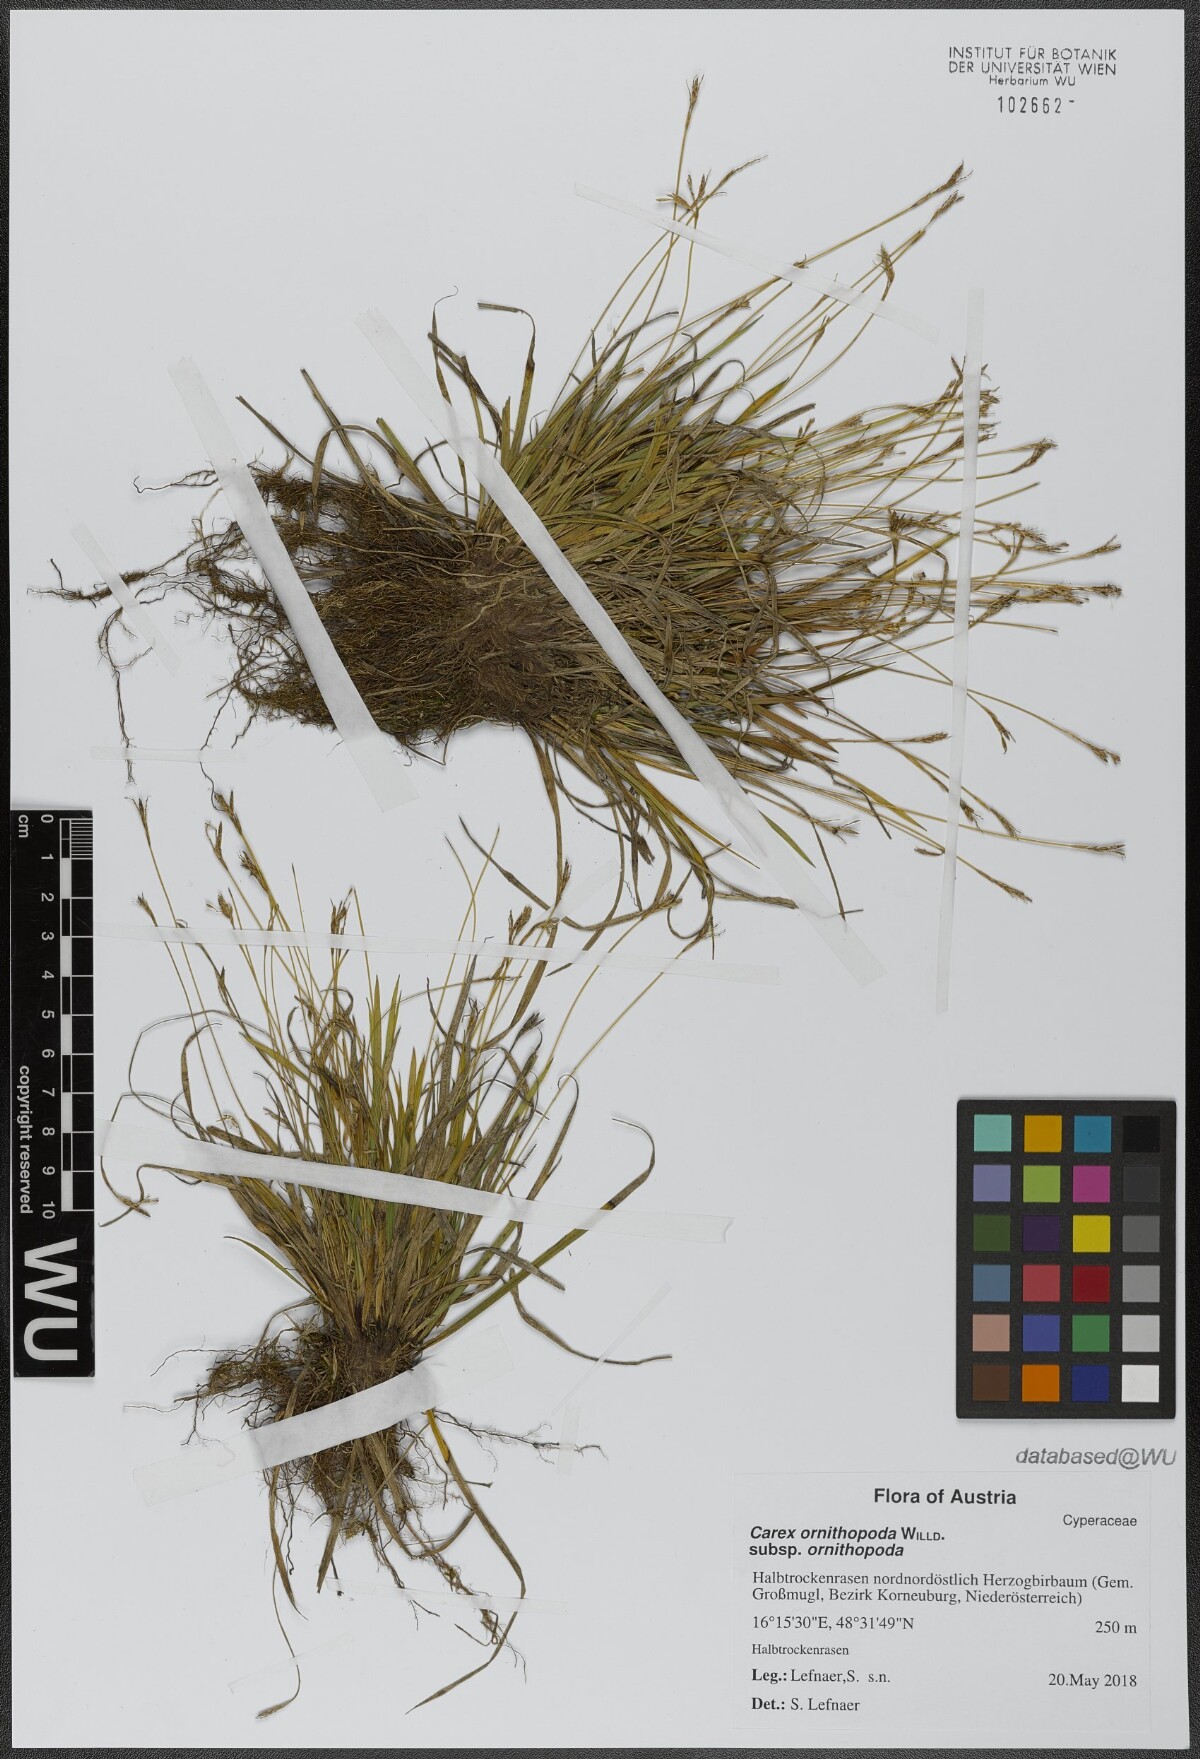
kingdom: Plantae
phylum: Tracheophyta
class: Liliopsida
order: Poales
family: Cyperaceae
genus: Carex
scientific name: Carex ornithopoda
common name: Bird's-foot sedge
